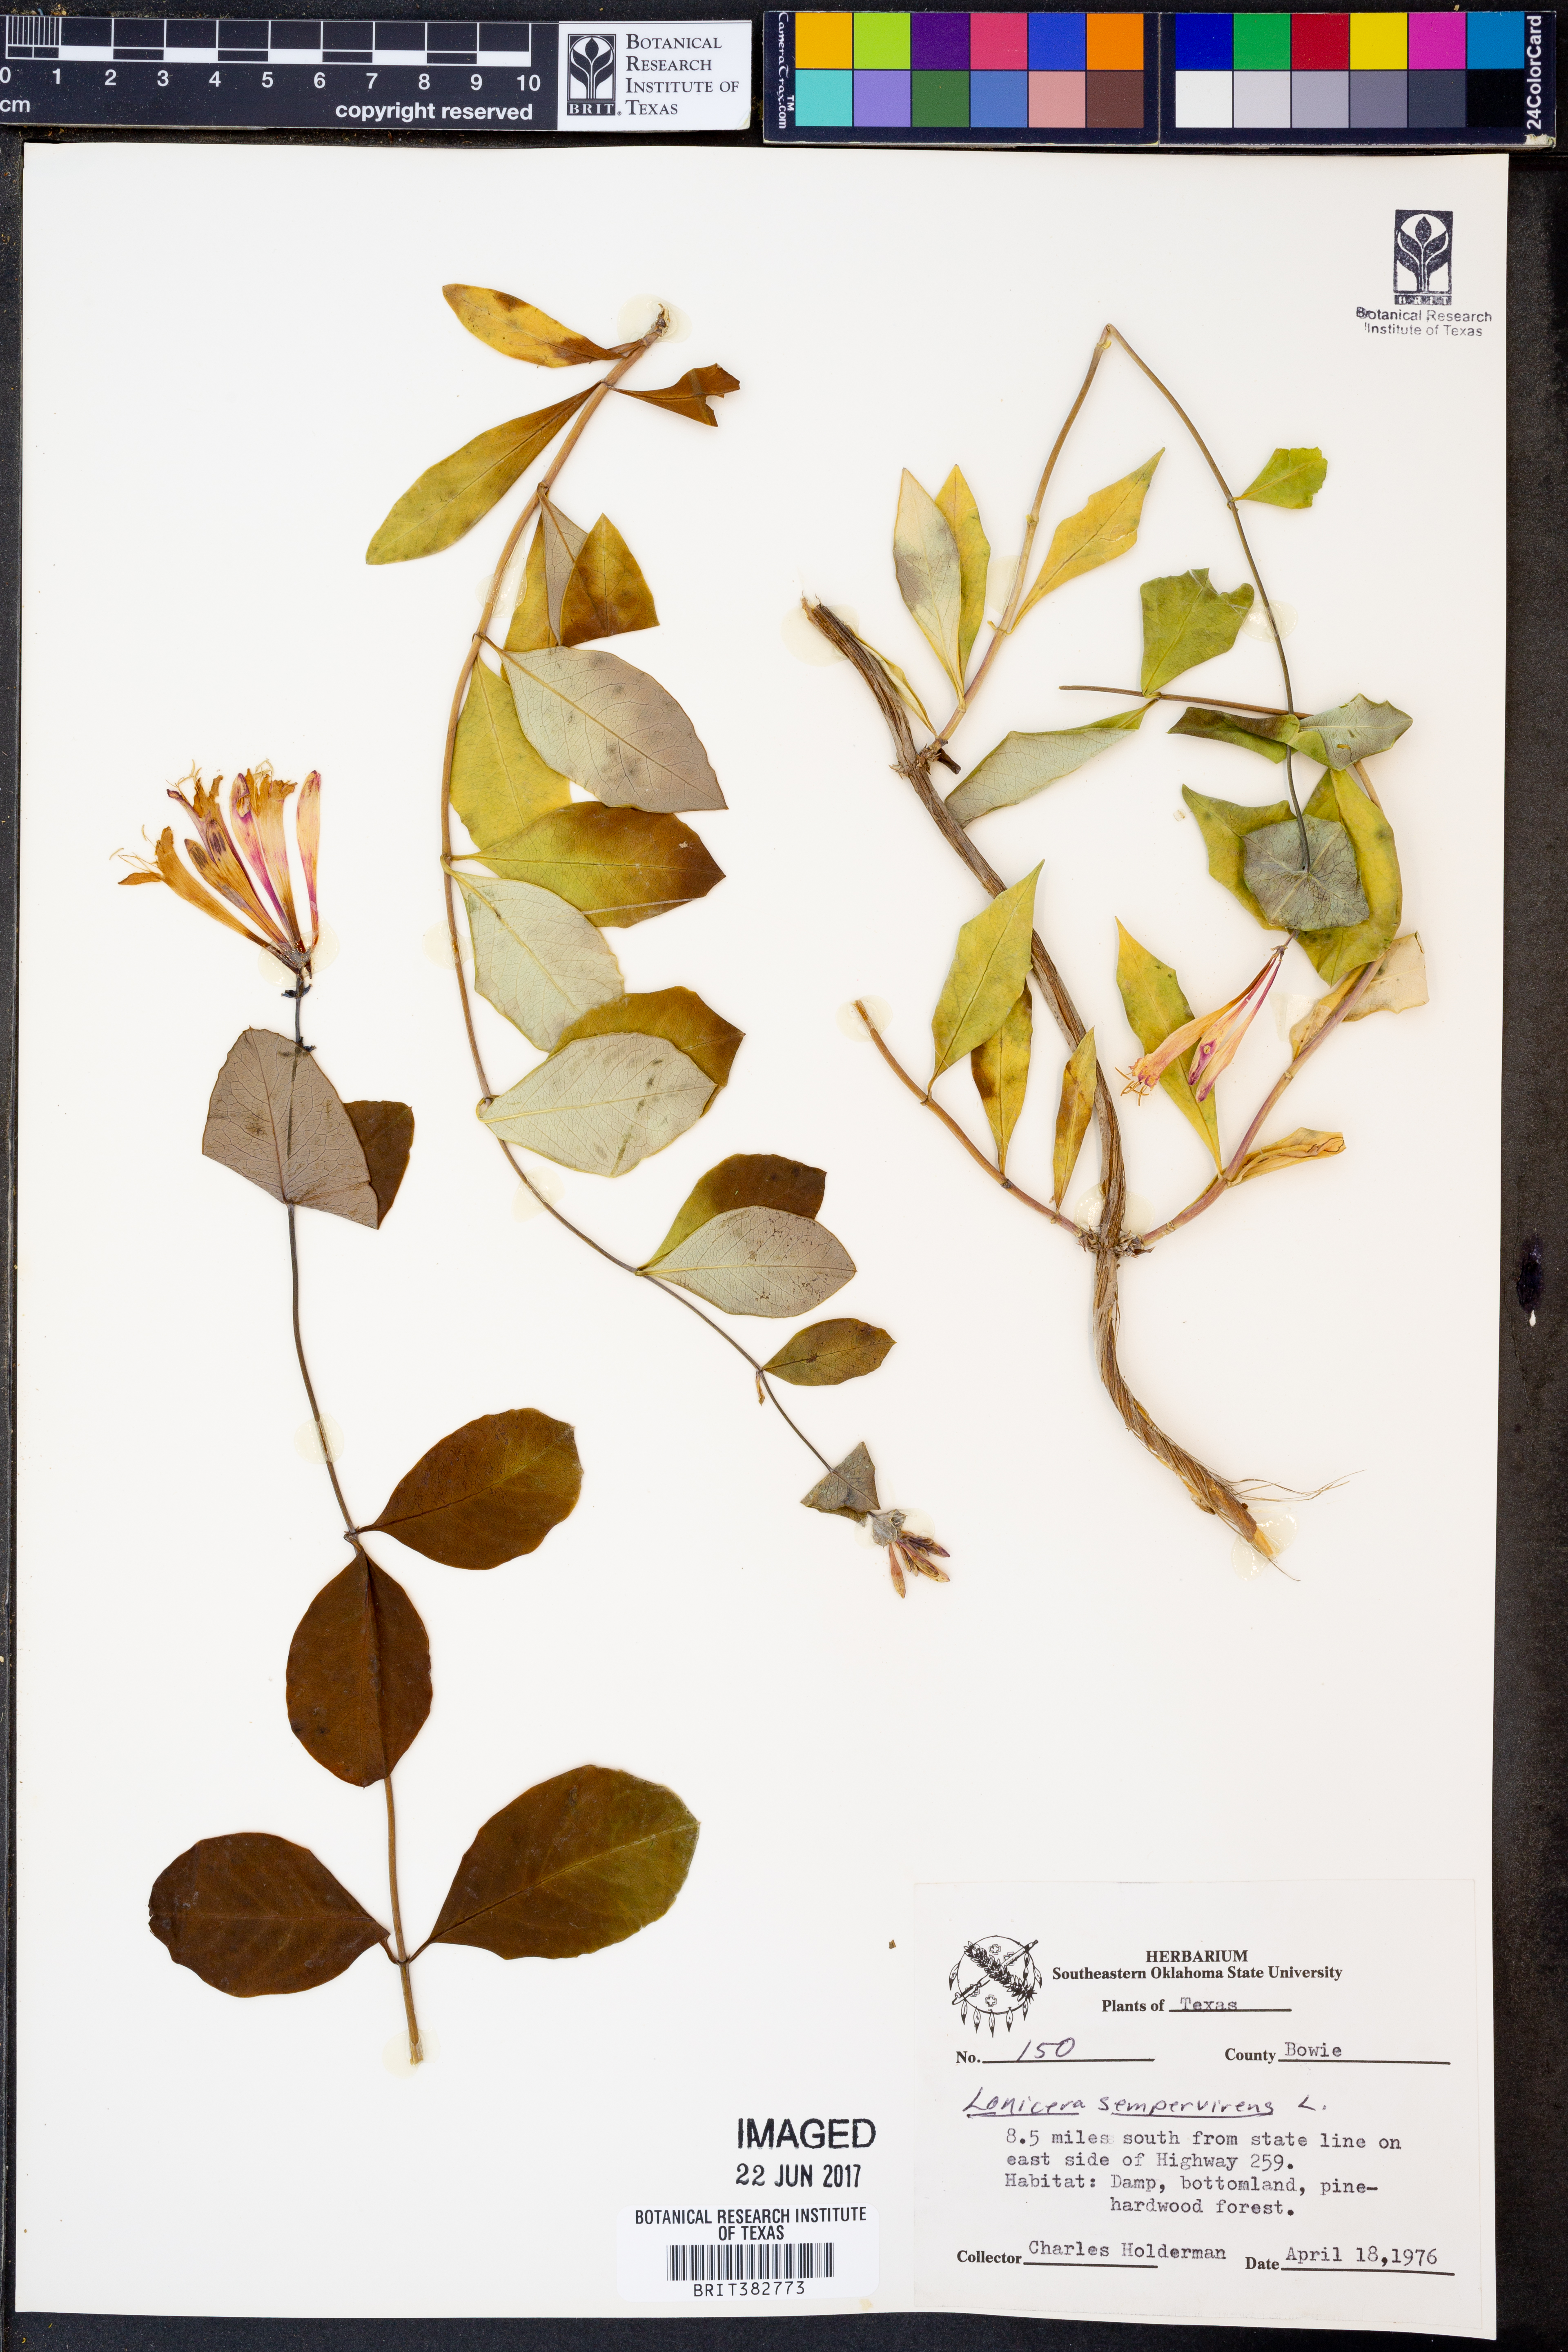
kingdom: Plantae
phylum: Tracheophyta
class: Magnoliopsida
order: Dipsacales
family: Caprifoliaceae
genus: Lonicera
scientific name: Lonicera sempervirens
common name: Coral honeysuckle
